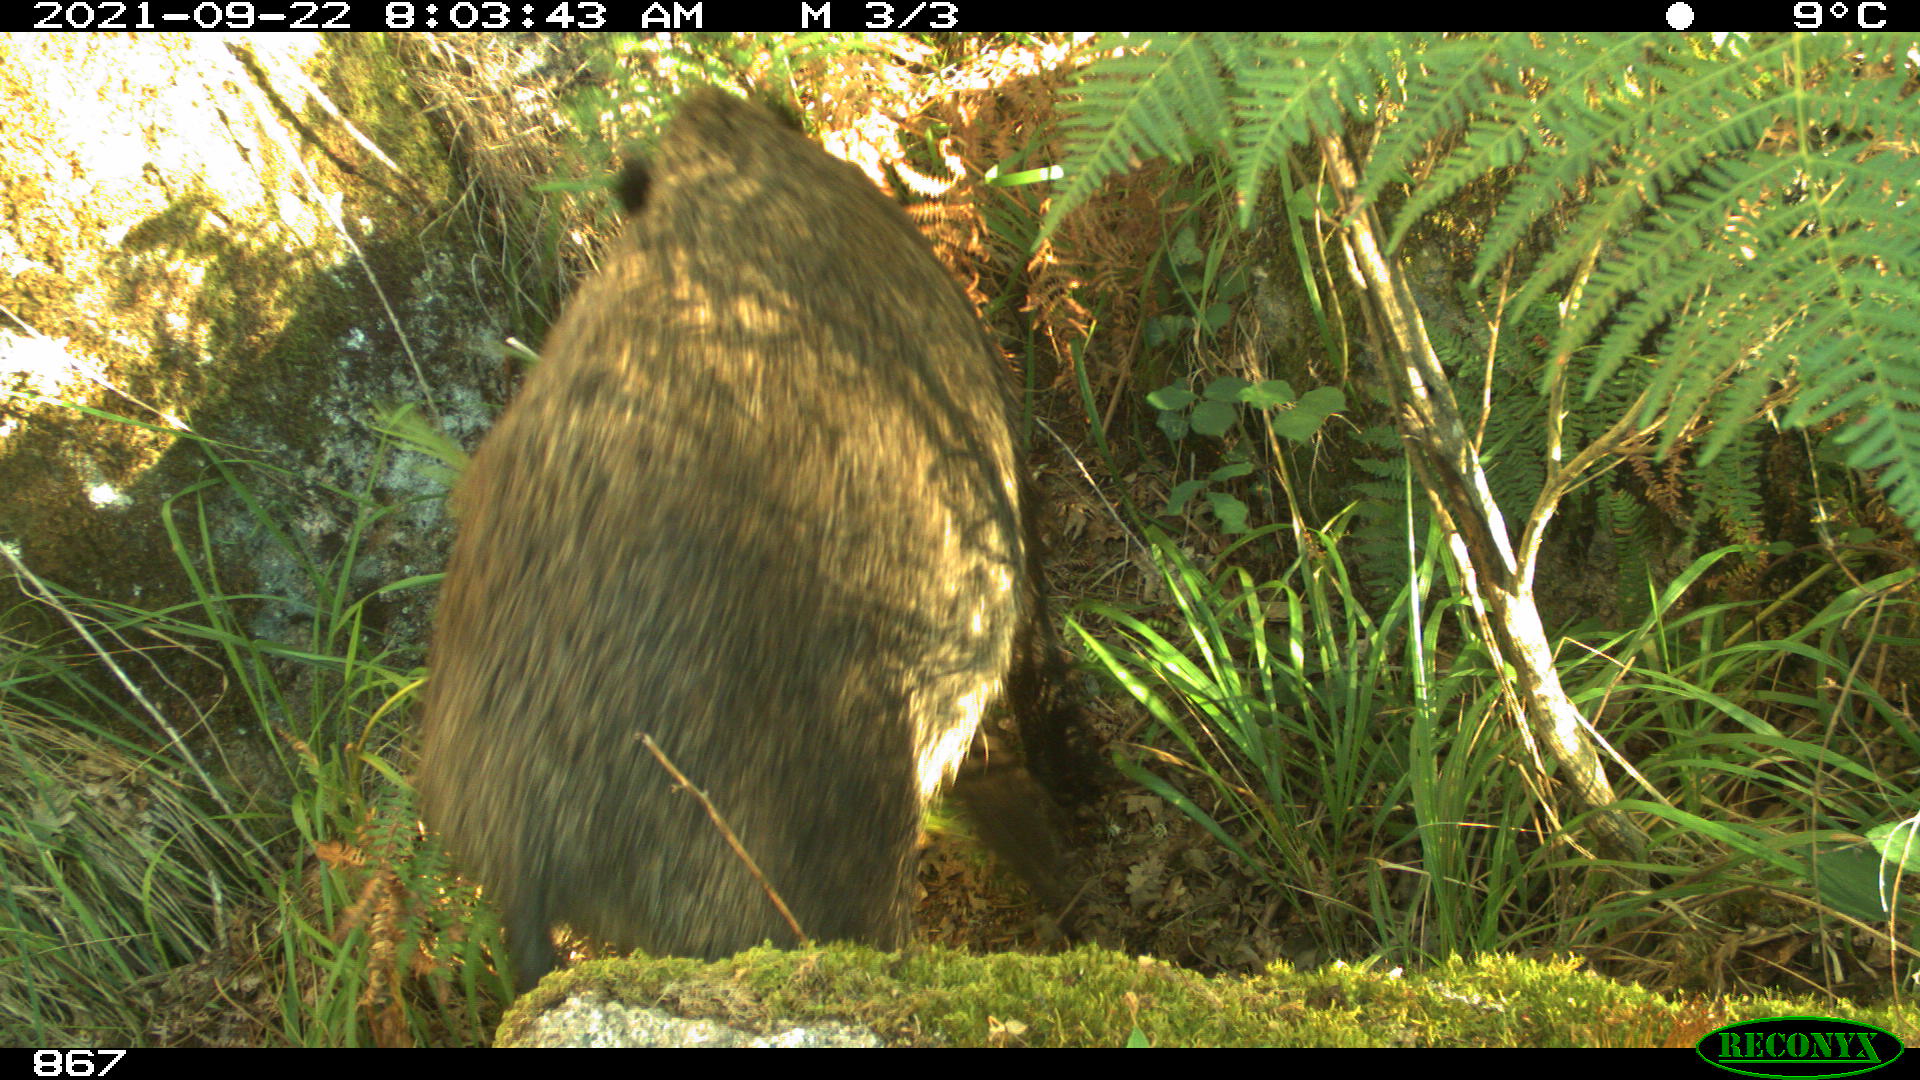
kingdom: Animalia
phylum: Chordata
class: Mammalia
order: Artiodactyla
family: Suidae
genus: Sus
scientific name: Sus scrofa
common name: Wild boar
